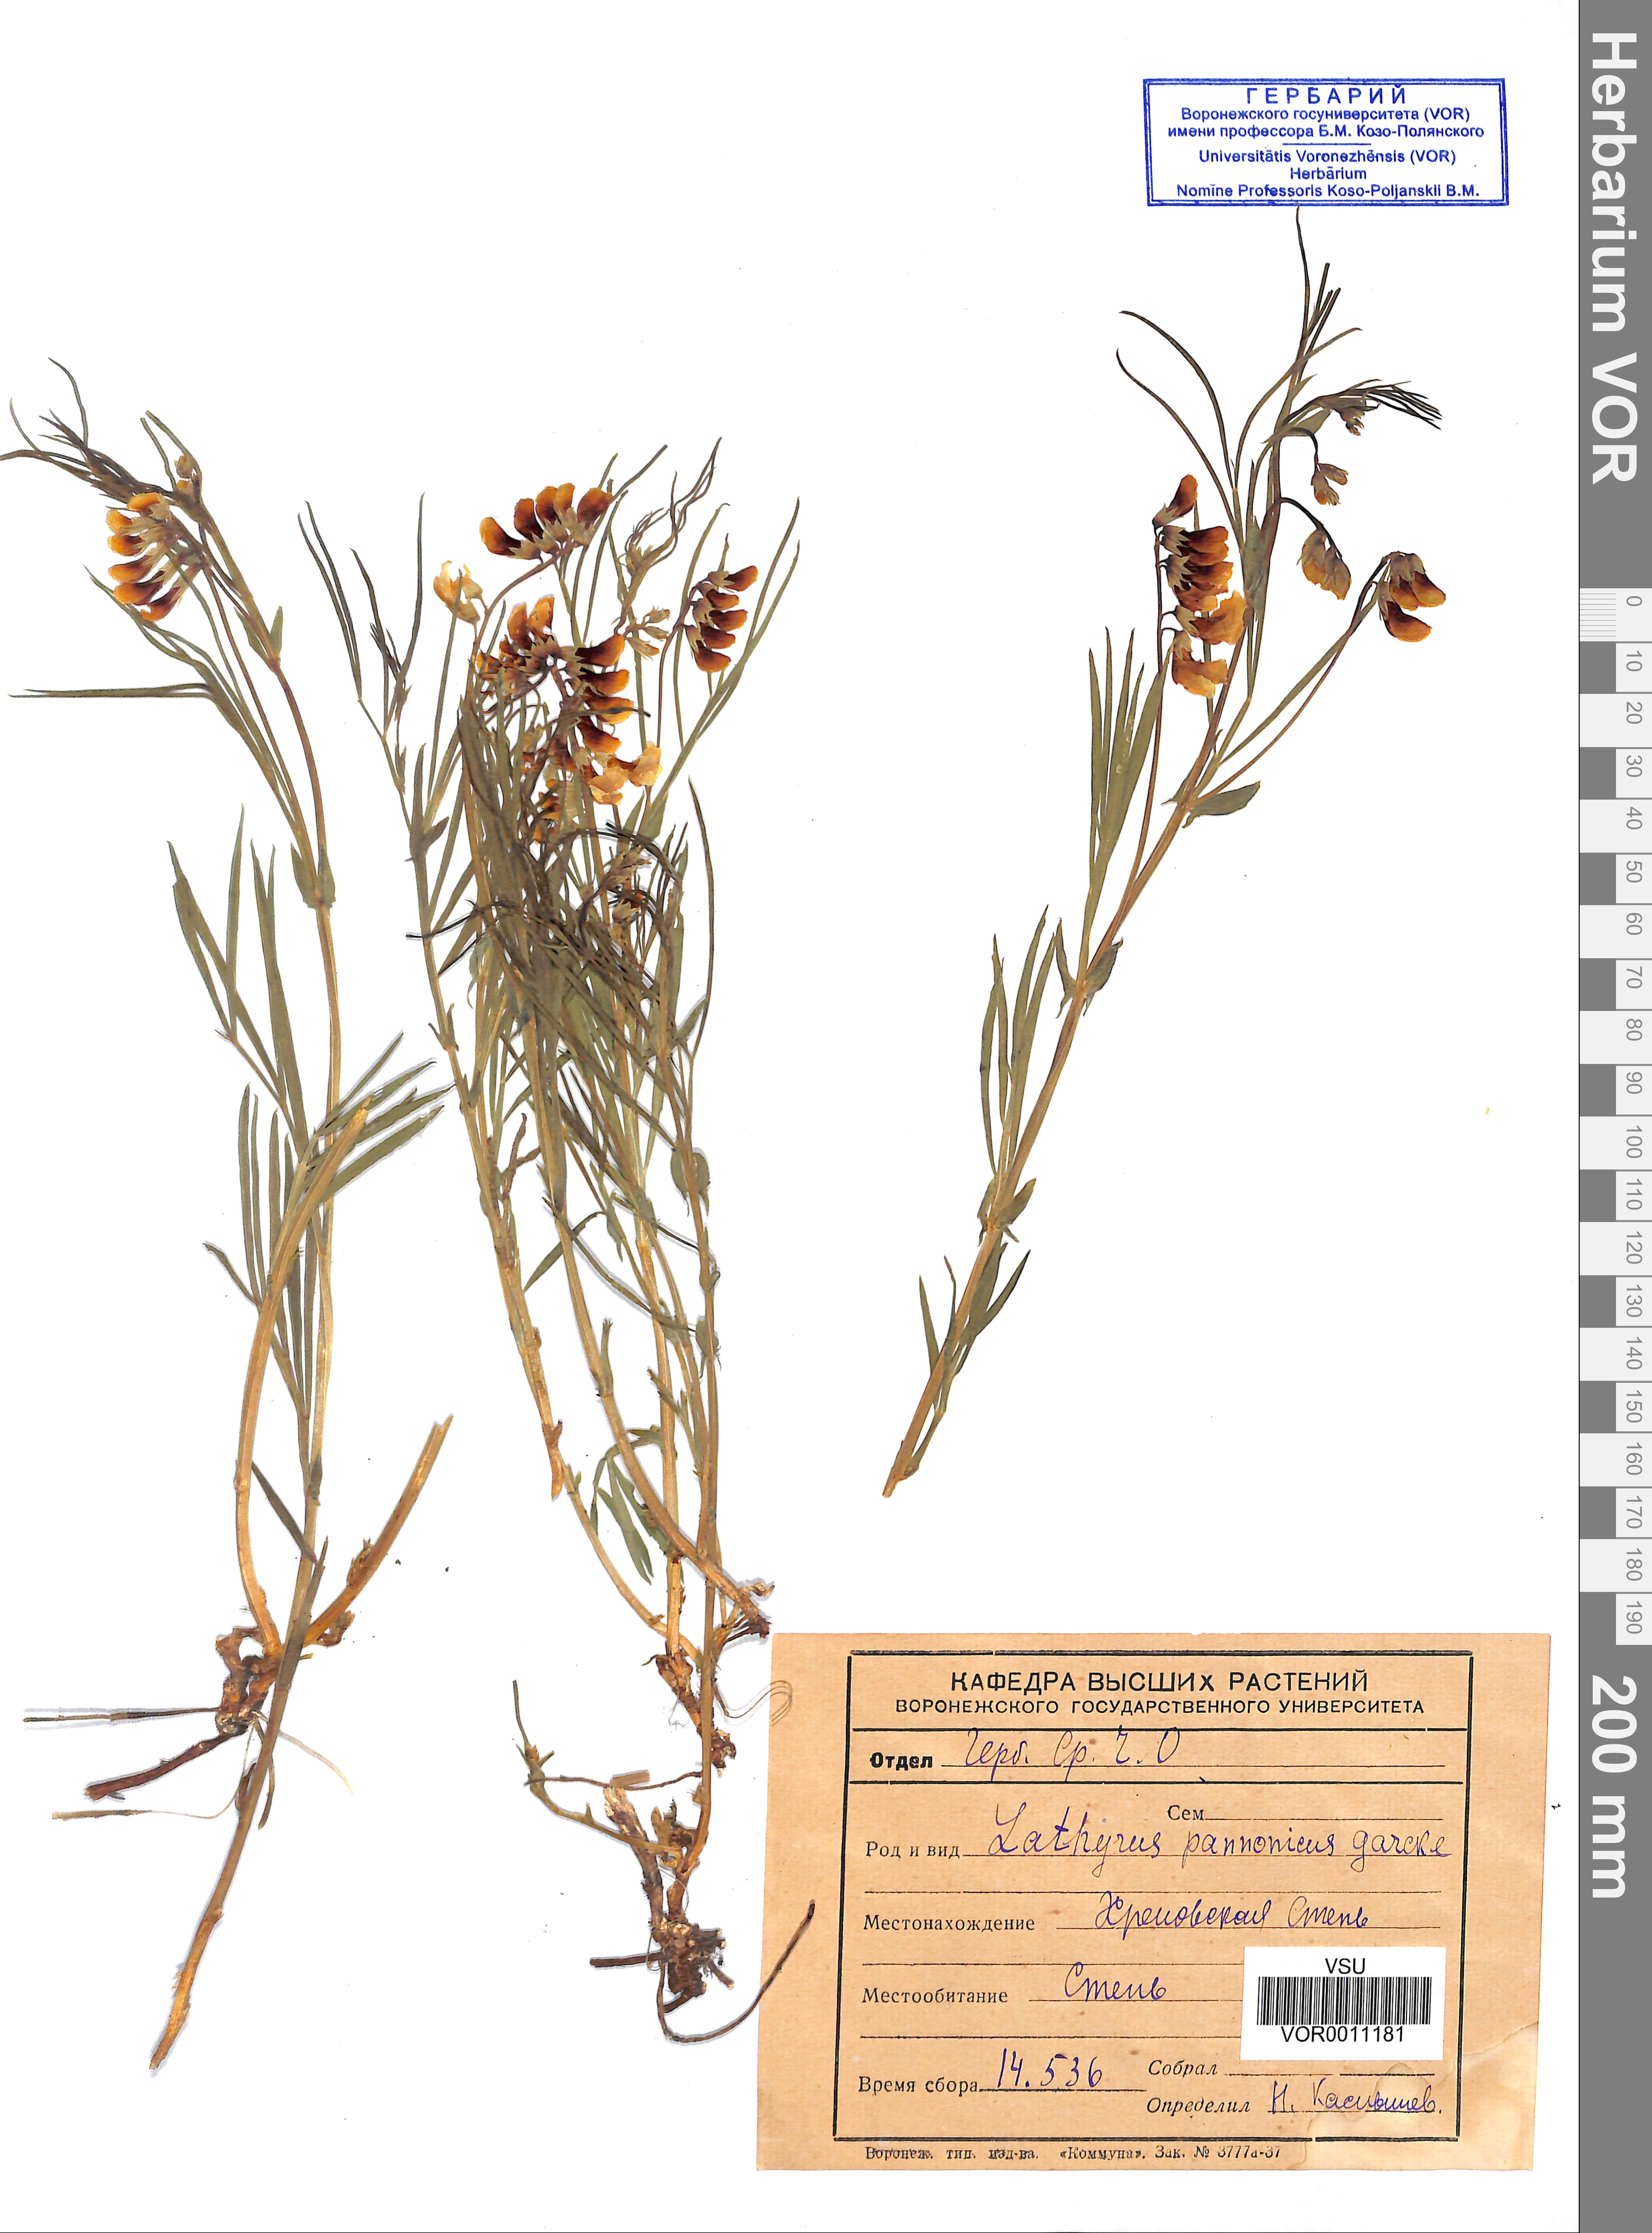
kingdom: Plantae
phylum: Tracheophyta
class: Magnoliopsida
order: Fabales
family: Fabaceae
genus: Lathyrus
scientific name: Lathyrus pannonicus
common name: Pea
